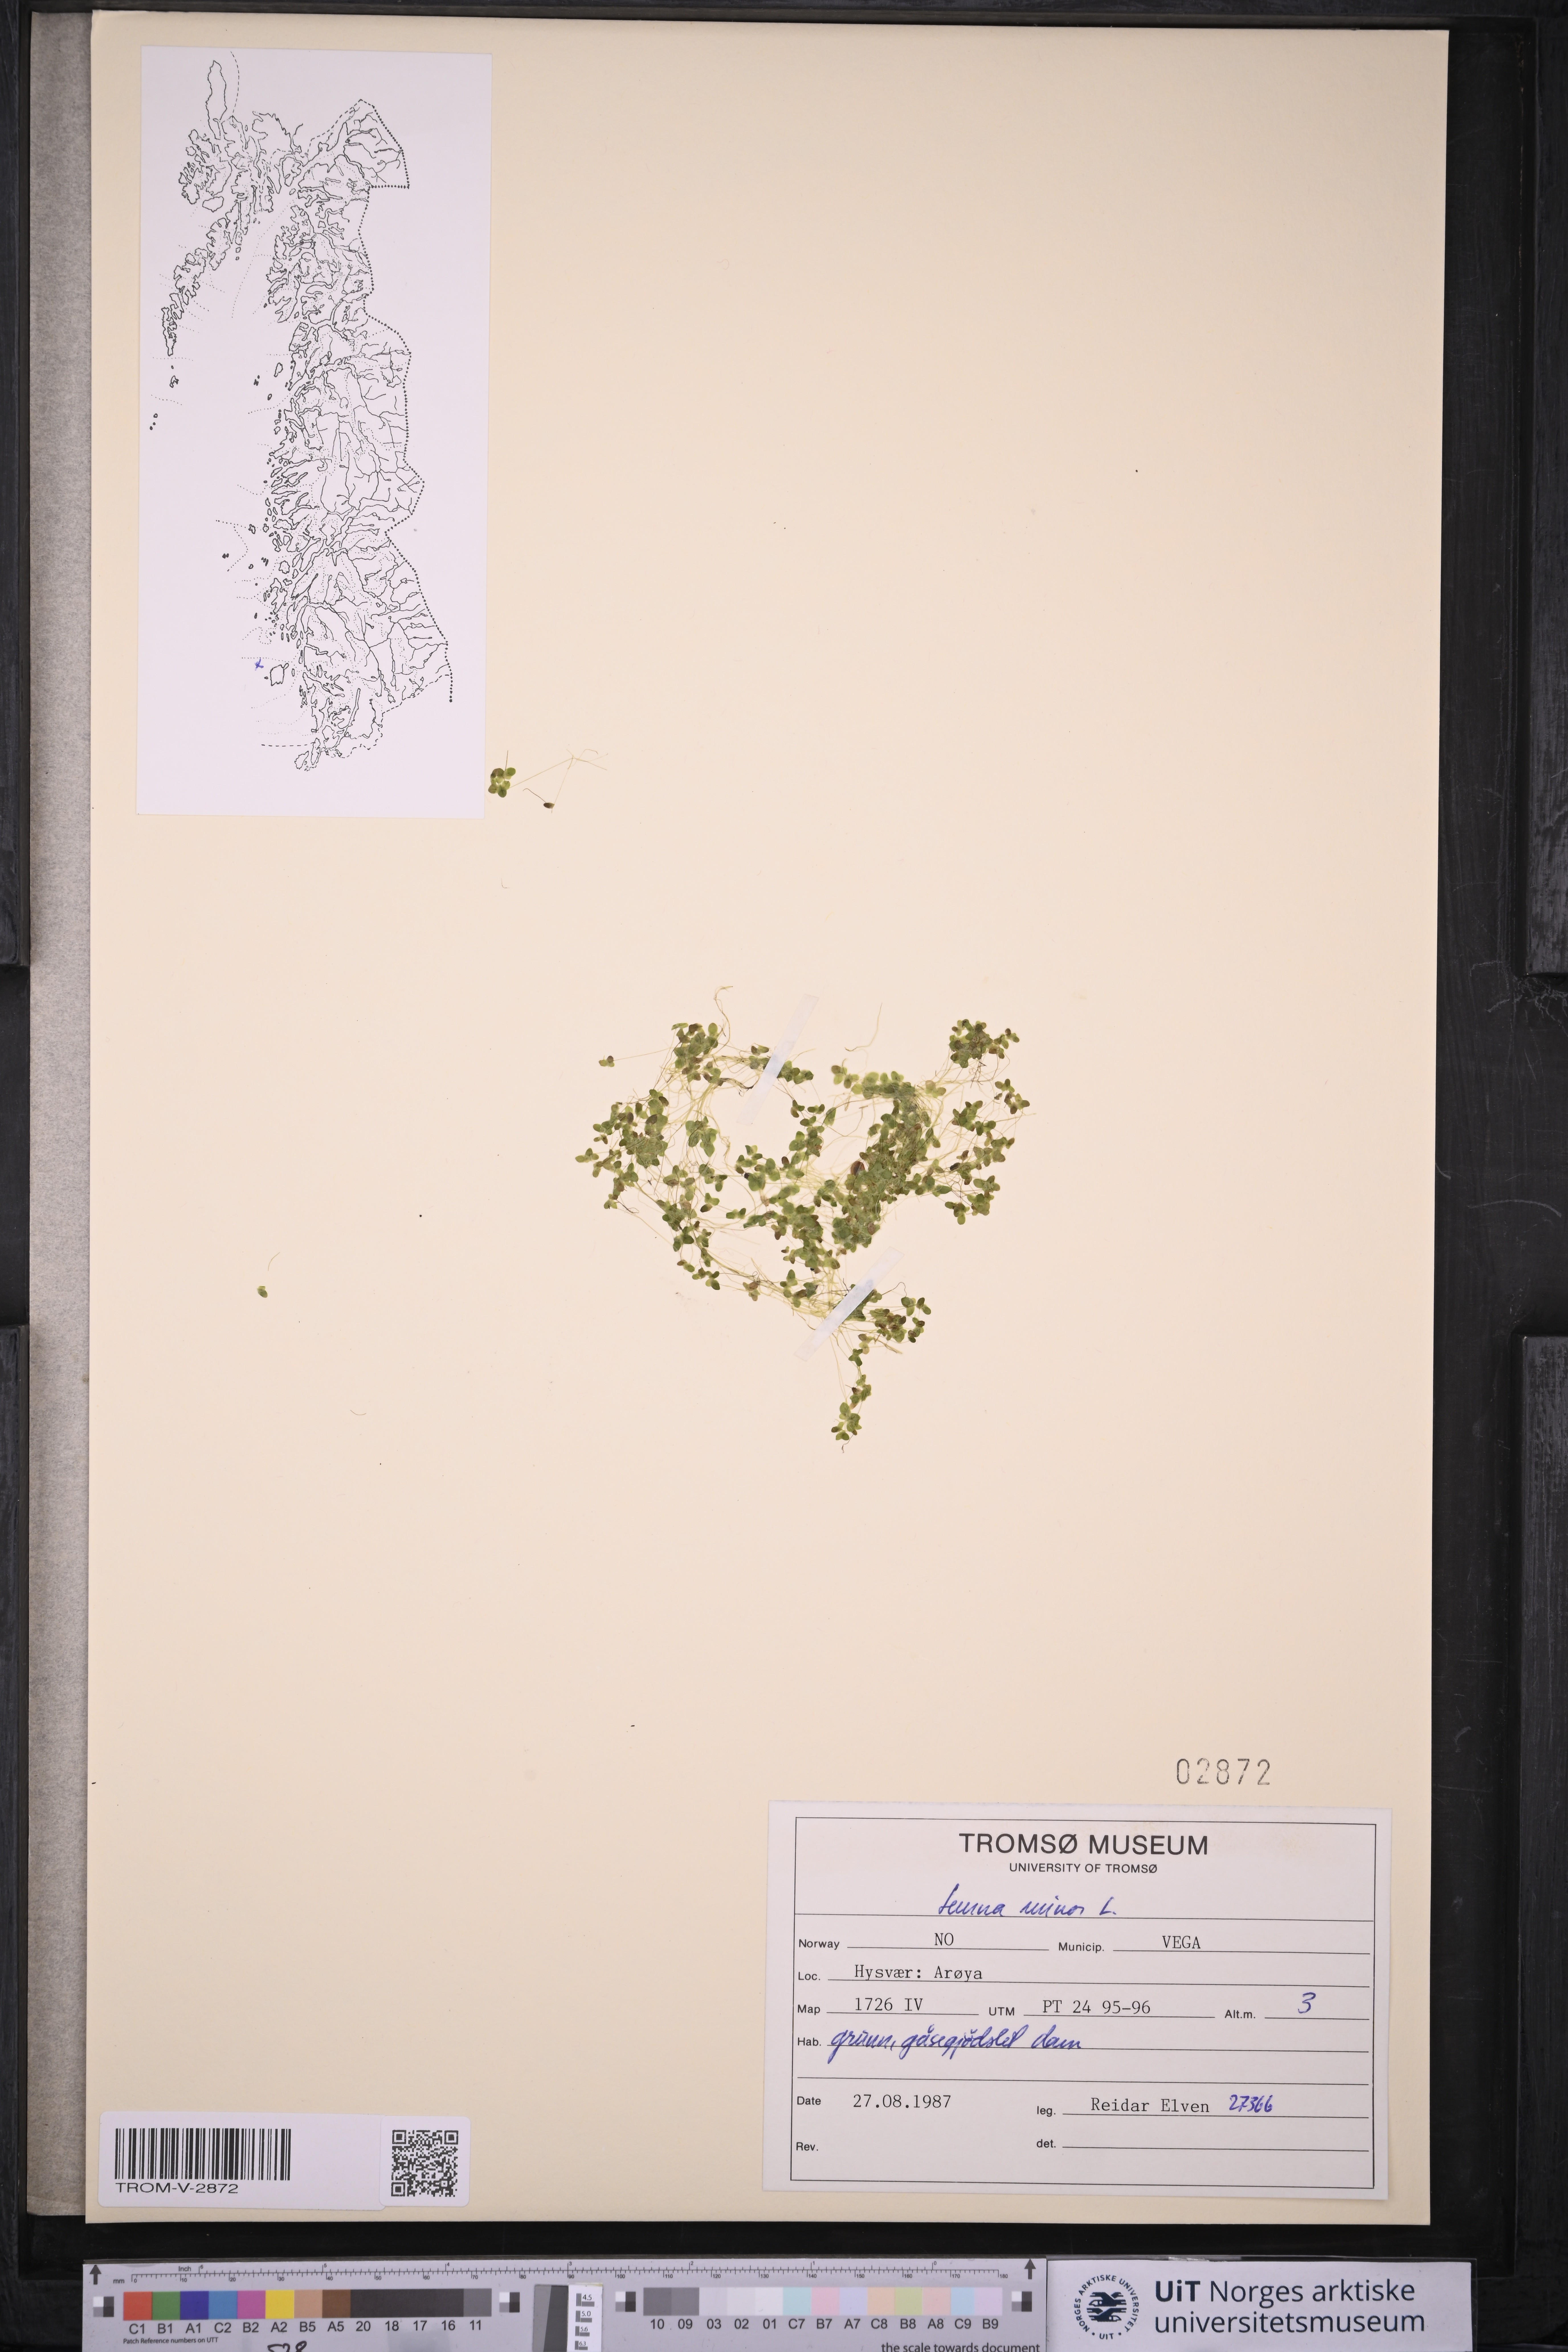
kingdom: Plantae
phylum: Tracheophyta
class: Liliopsida
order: Alismatales
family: Araceae
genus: Lemna
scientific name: Lemna minor
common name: Common duckweed
